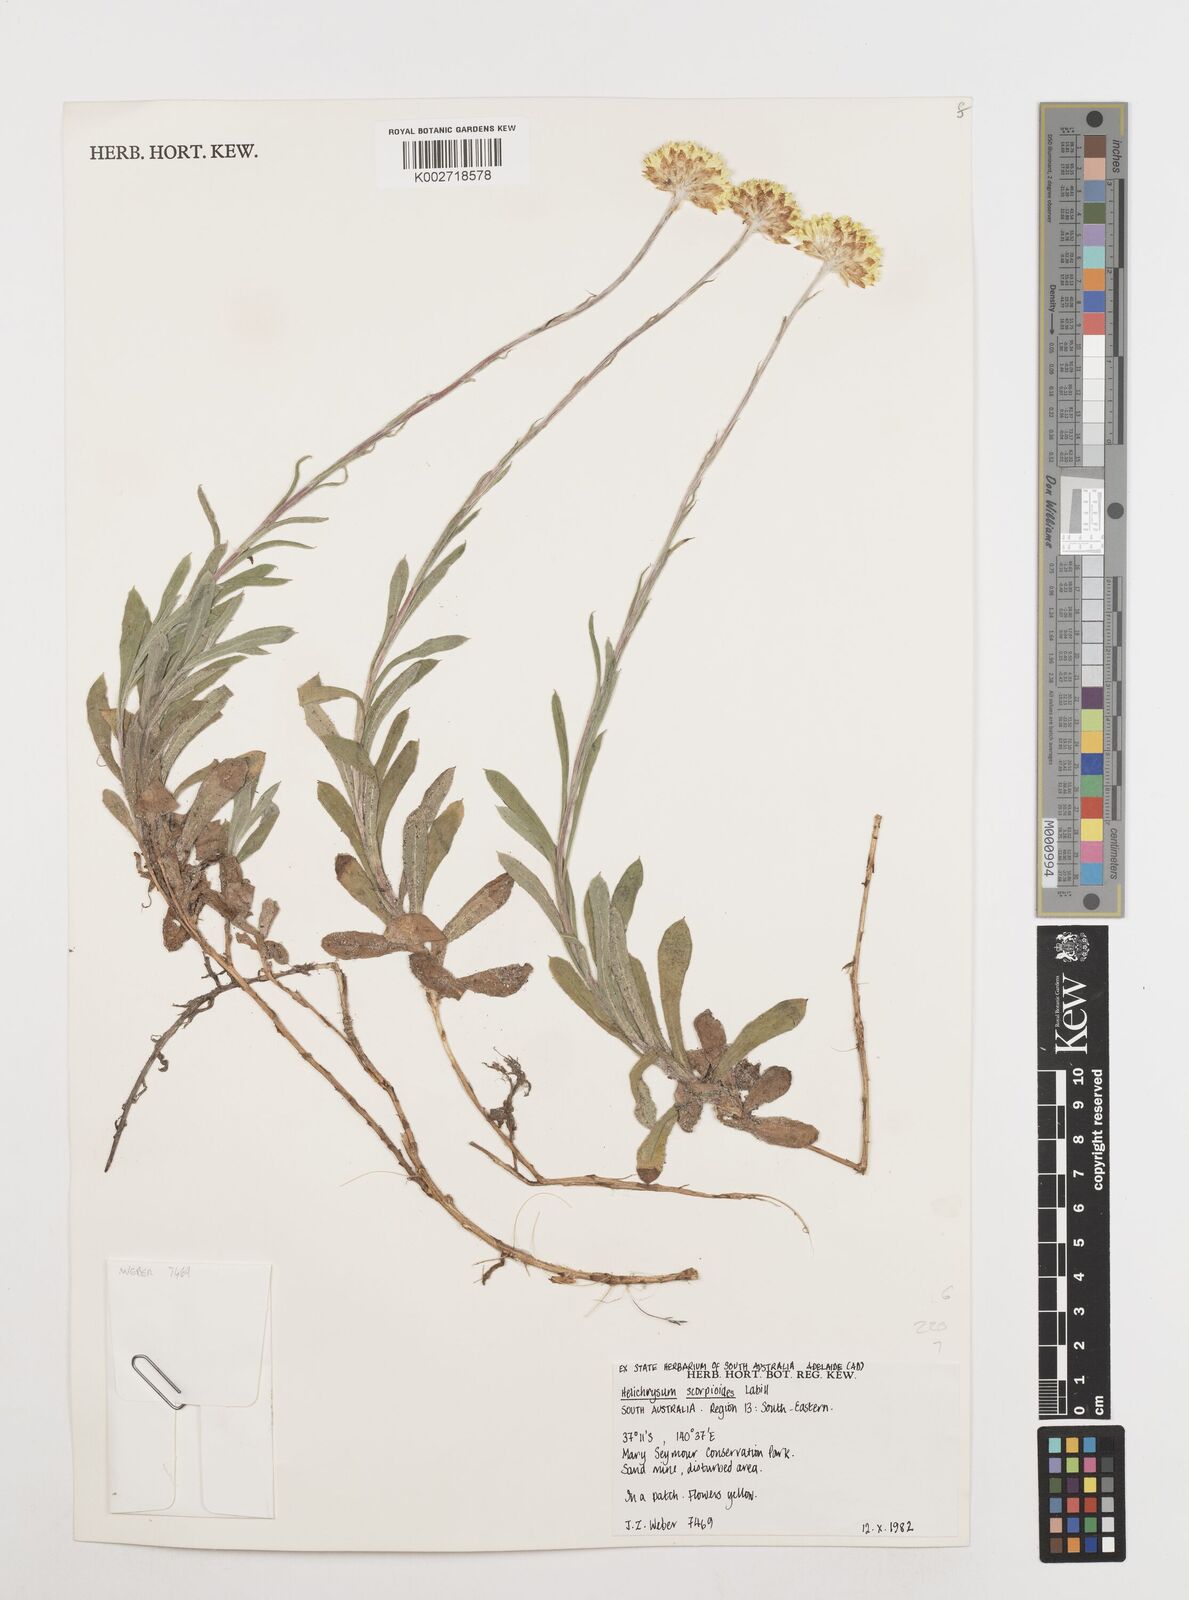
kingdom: Plantae
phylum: Tracheophyta
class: Magnoliopsida
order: Asterales
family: Asteraceae
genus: Coronidium
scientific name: Coronidium scorpioides
